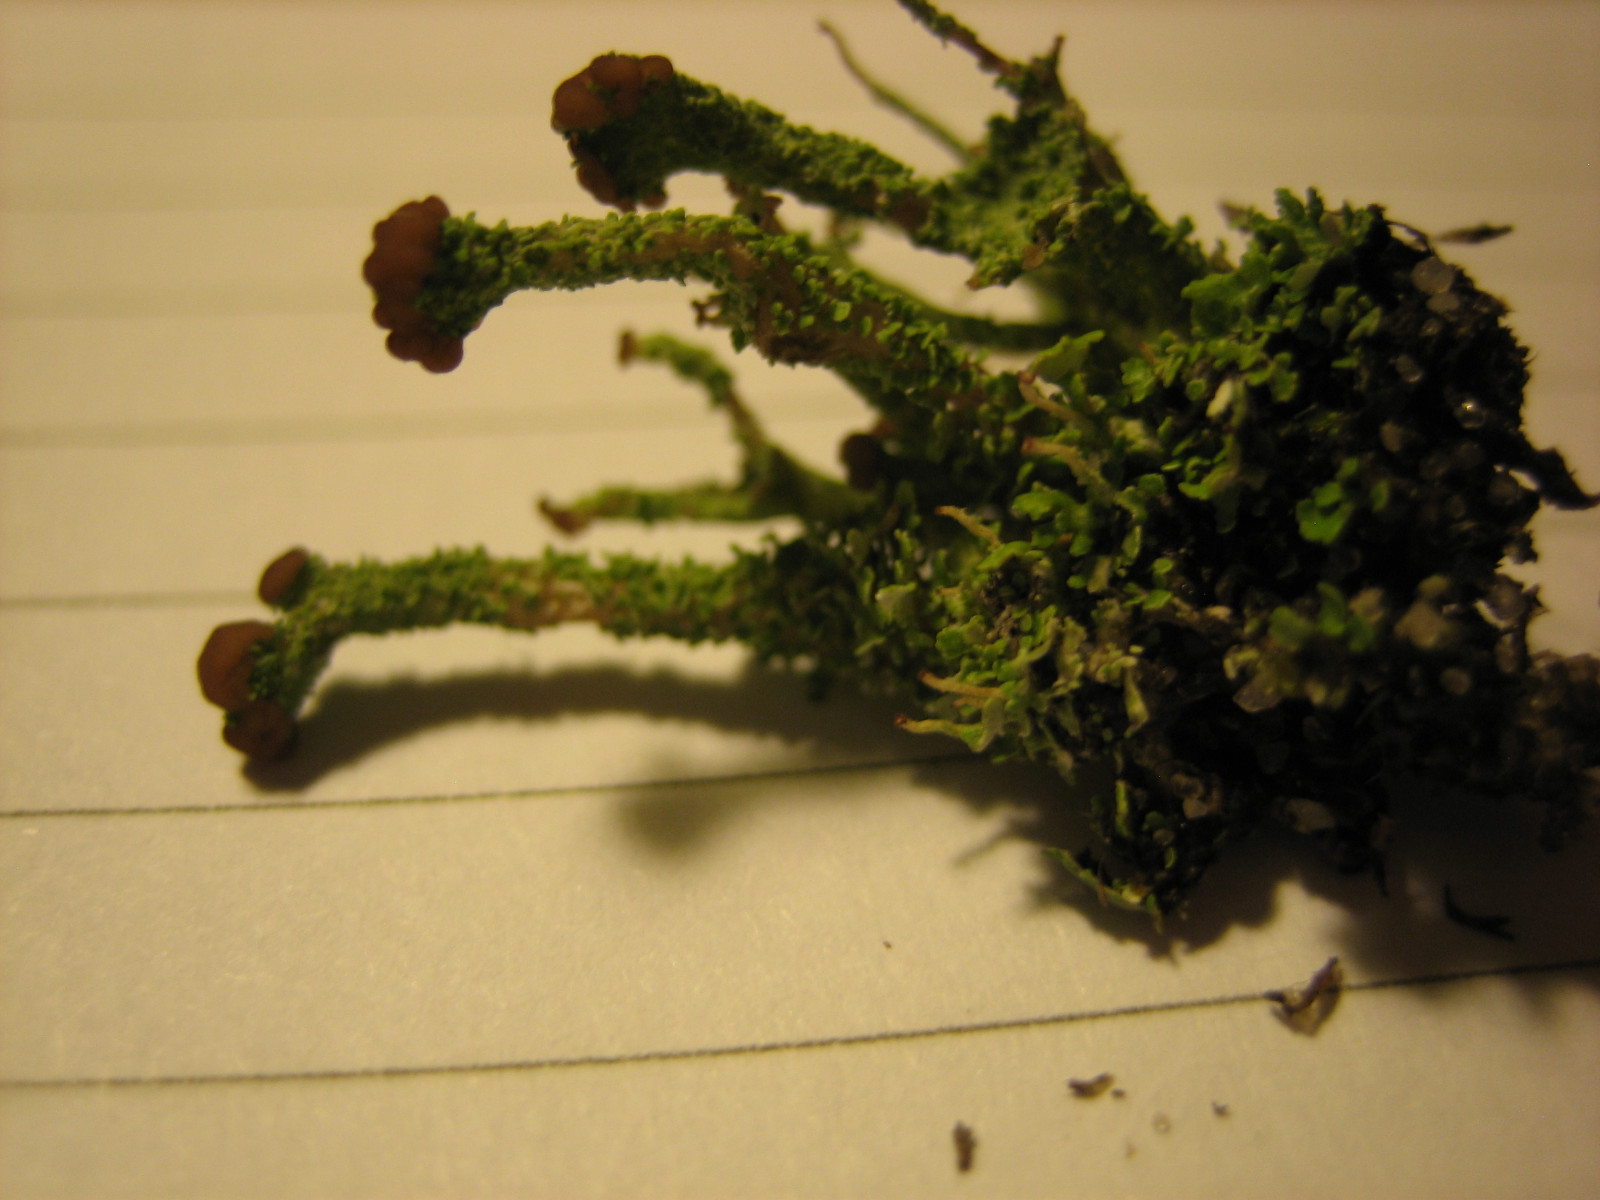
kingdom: Fungi
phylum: Ascomycota
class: Lecanoromycetes
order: Lecanorales
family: Cladoniaceae
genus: Cladonia
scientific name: Cladonia ramulosa
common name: kliddet bægerlav
